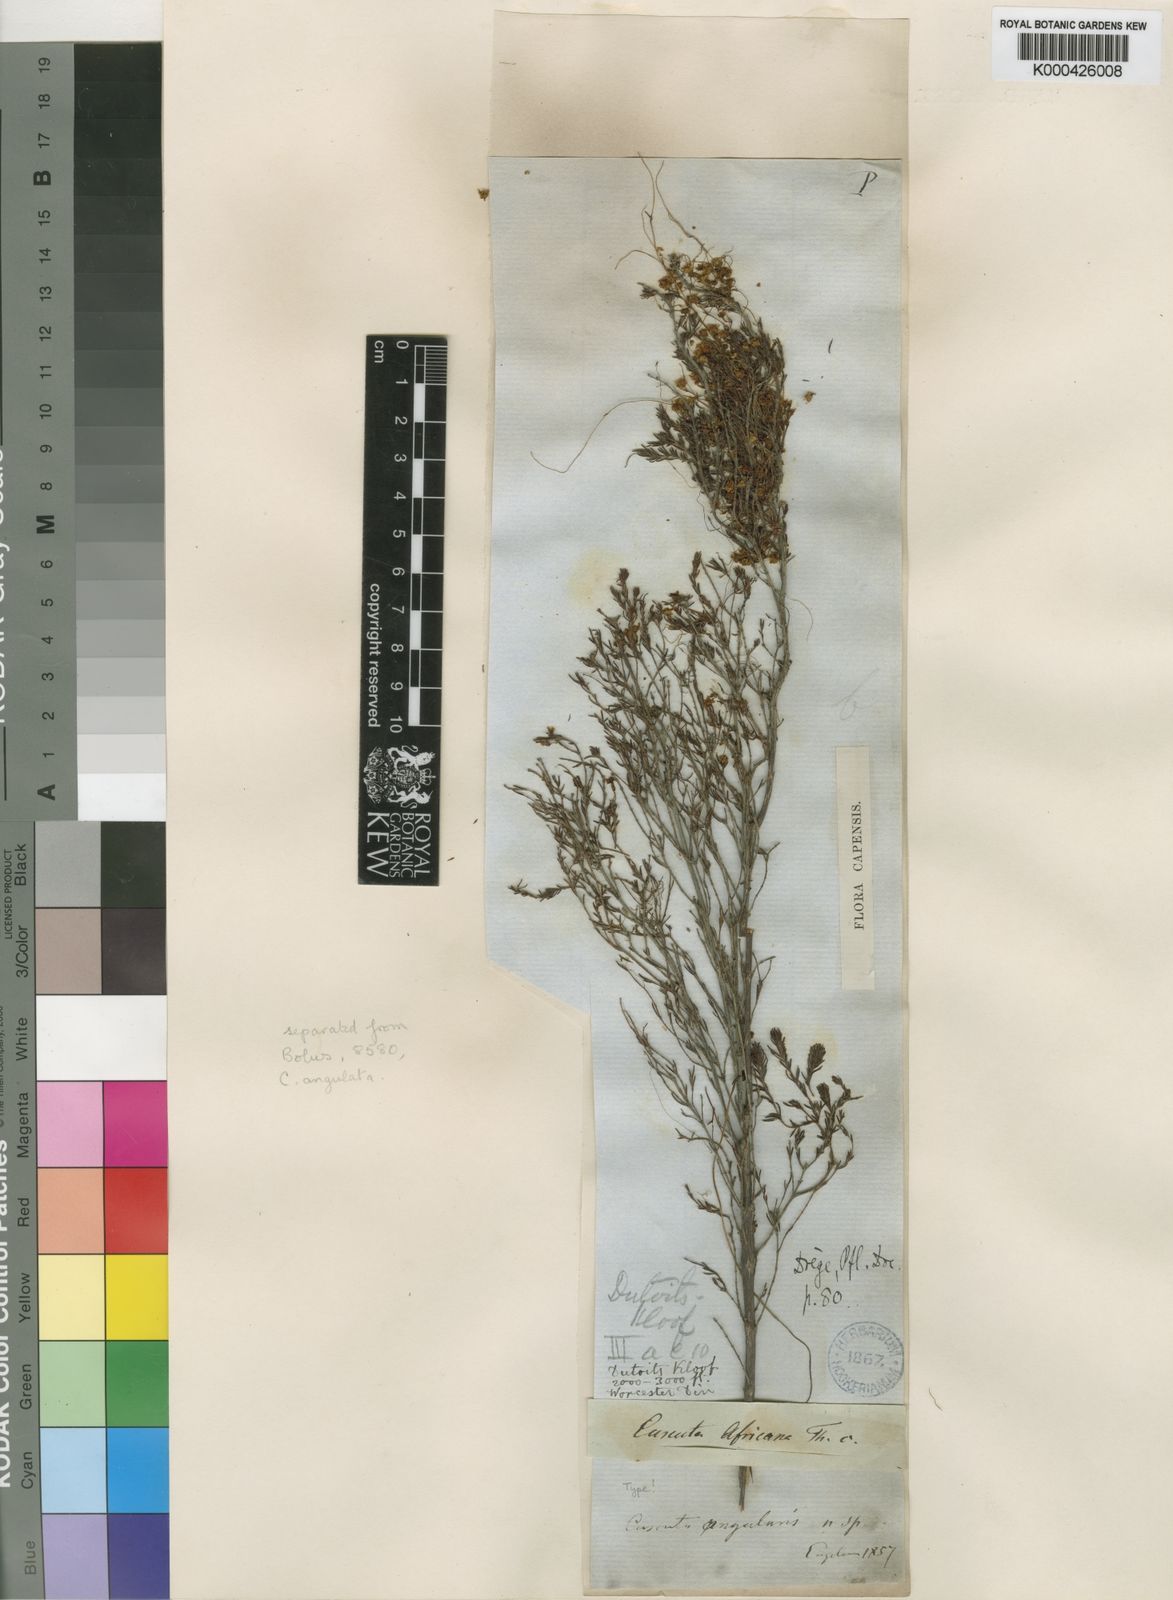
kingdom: Plantae
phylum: Tracheophyta
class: Magnoliopsida
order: Solanales
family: Convolvulaceae
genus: Cuscuta
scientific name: Cuscuta angulata
